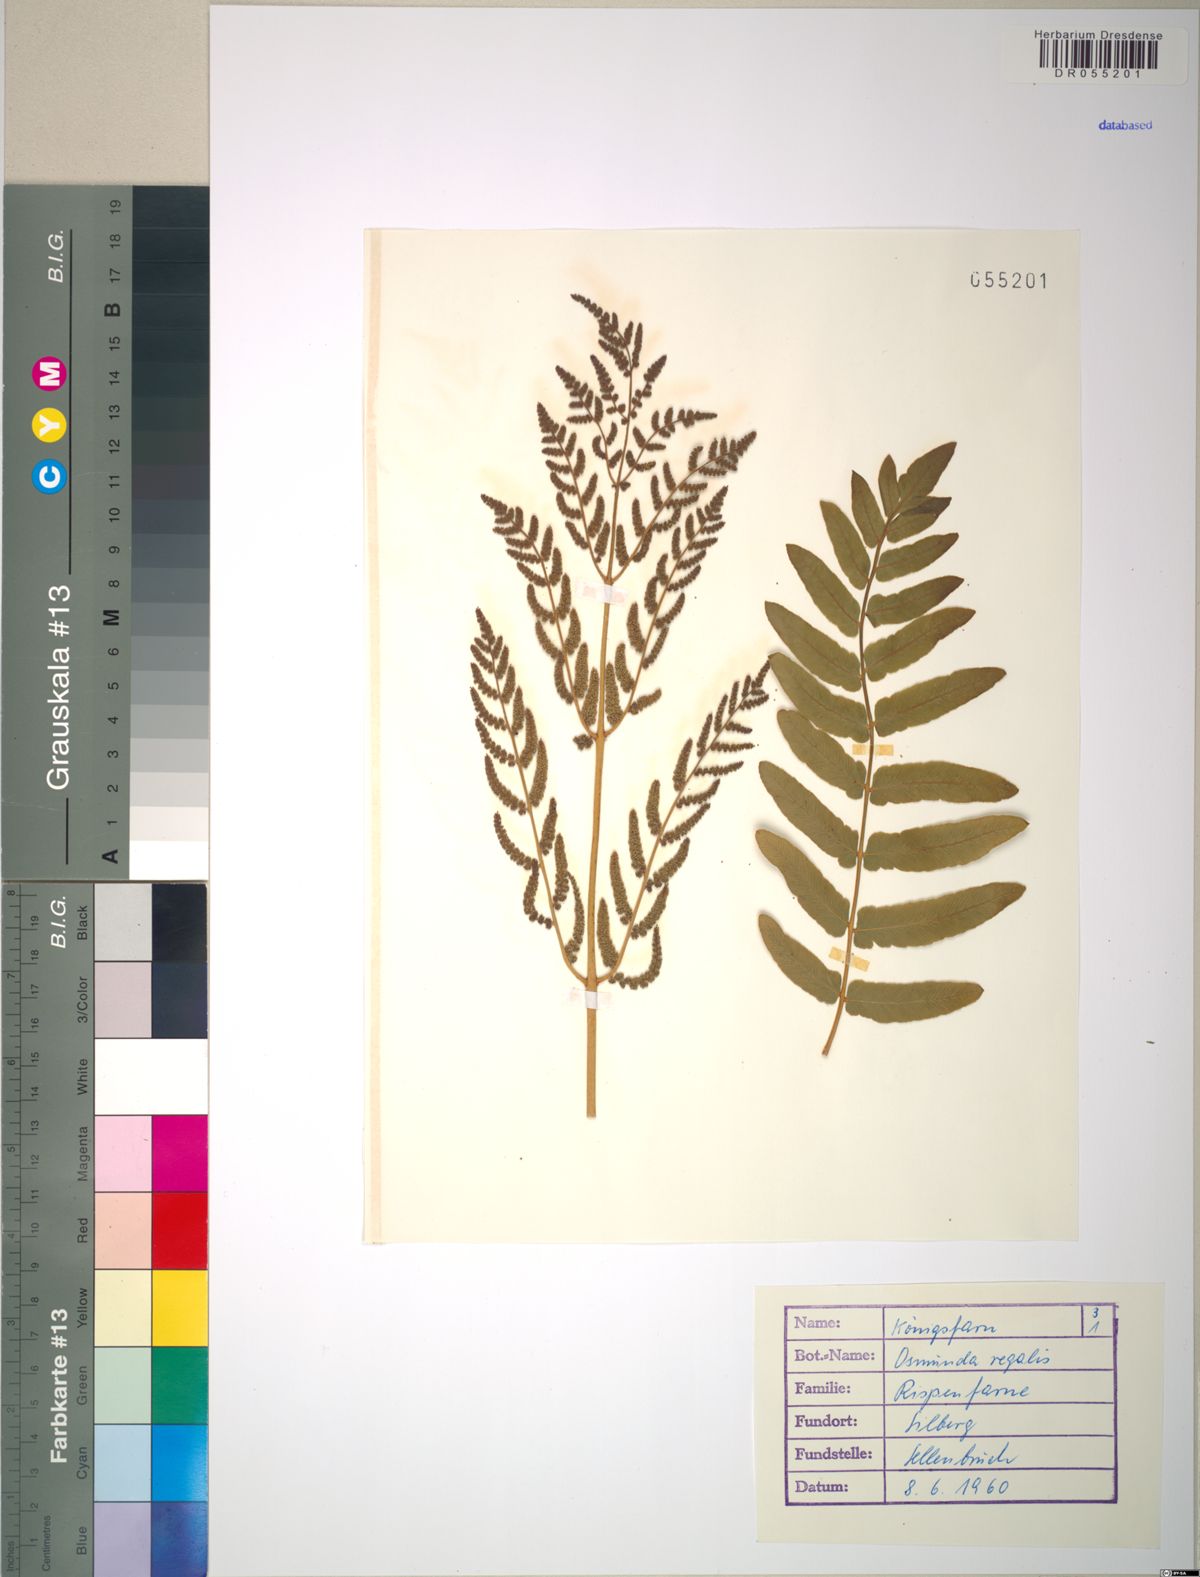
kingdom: Plantae
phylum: Tracheophyta
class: Polypodiopsida
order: Osmundales
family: Osmundaceae
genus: Osmunda
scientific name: Osmunda regalis
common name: Royal fern
